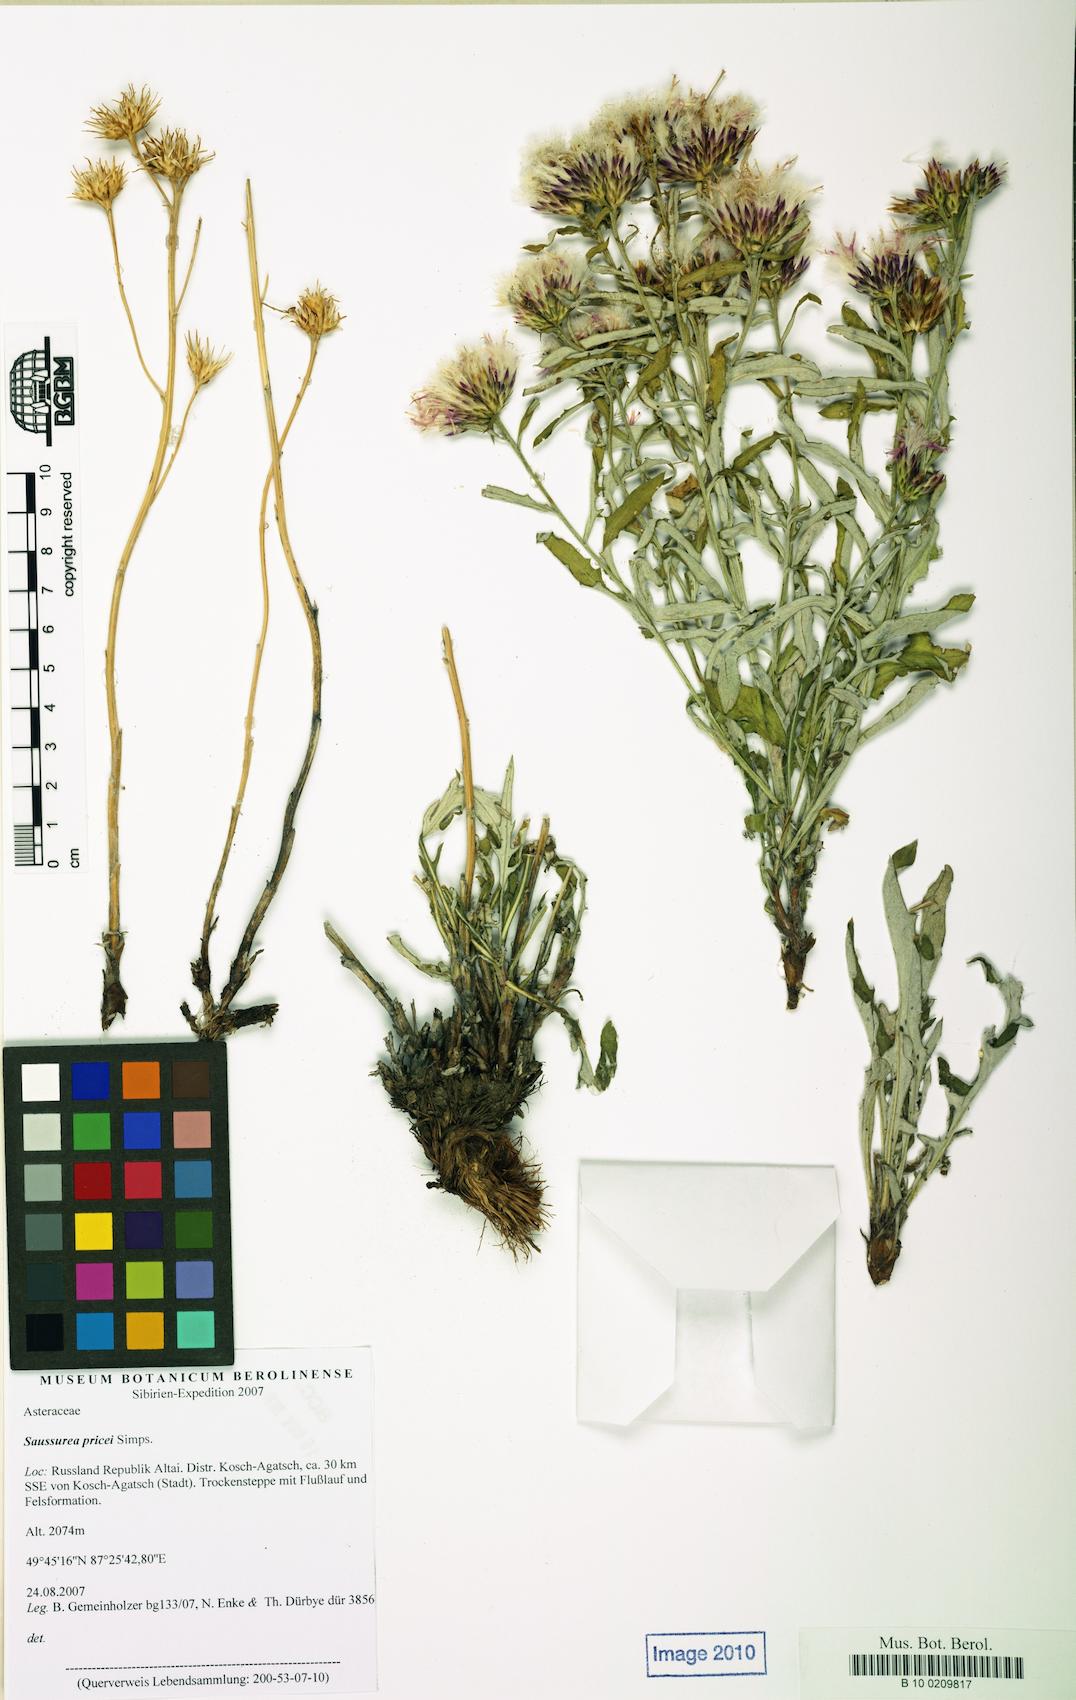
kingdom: Plantae
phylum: Tracheophyta
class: Magnoliopsida
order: Asterales
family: Asteraceae
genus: Saussurea
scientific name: Saussurea pricei
